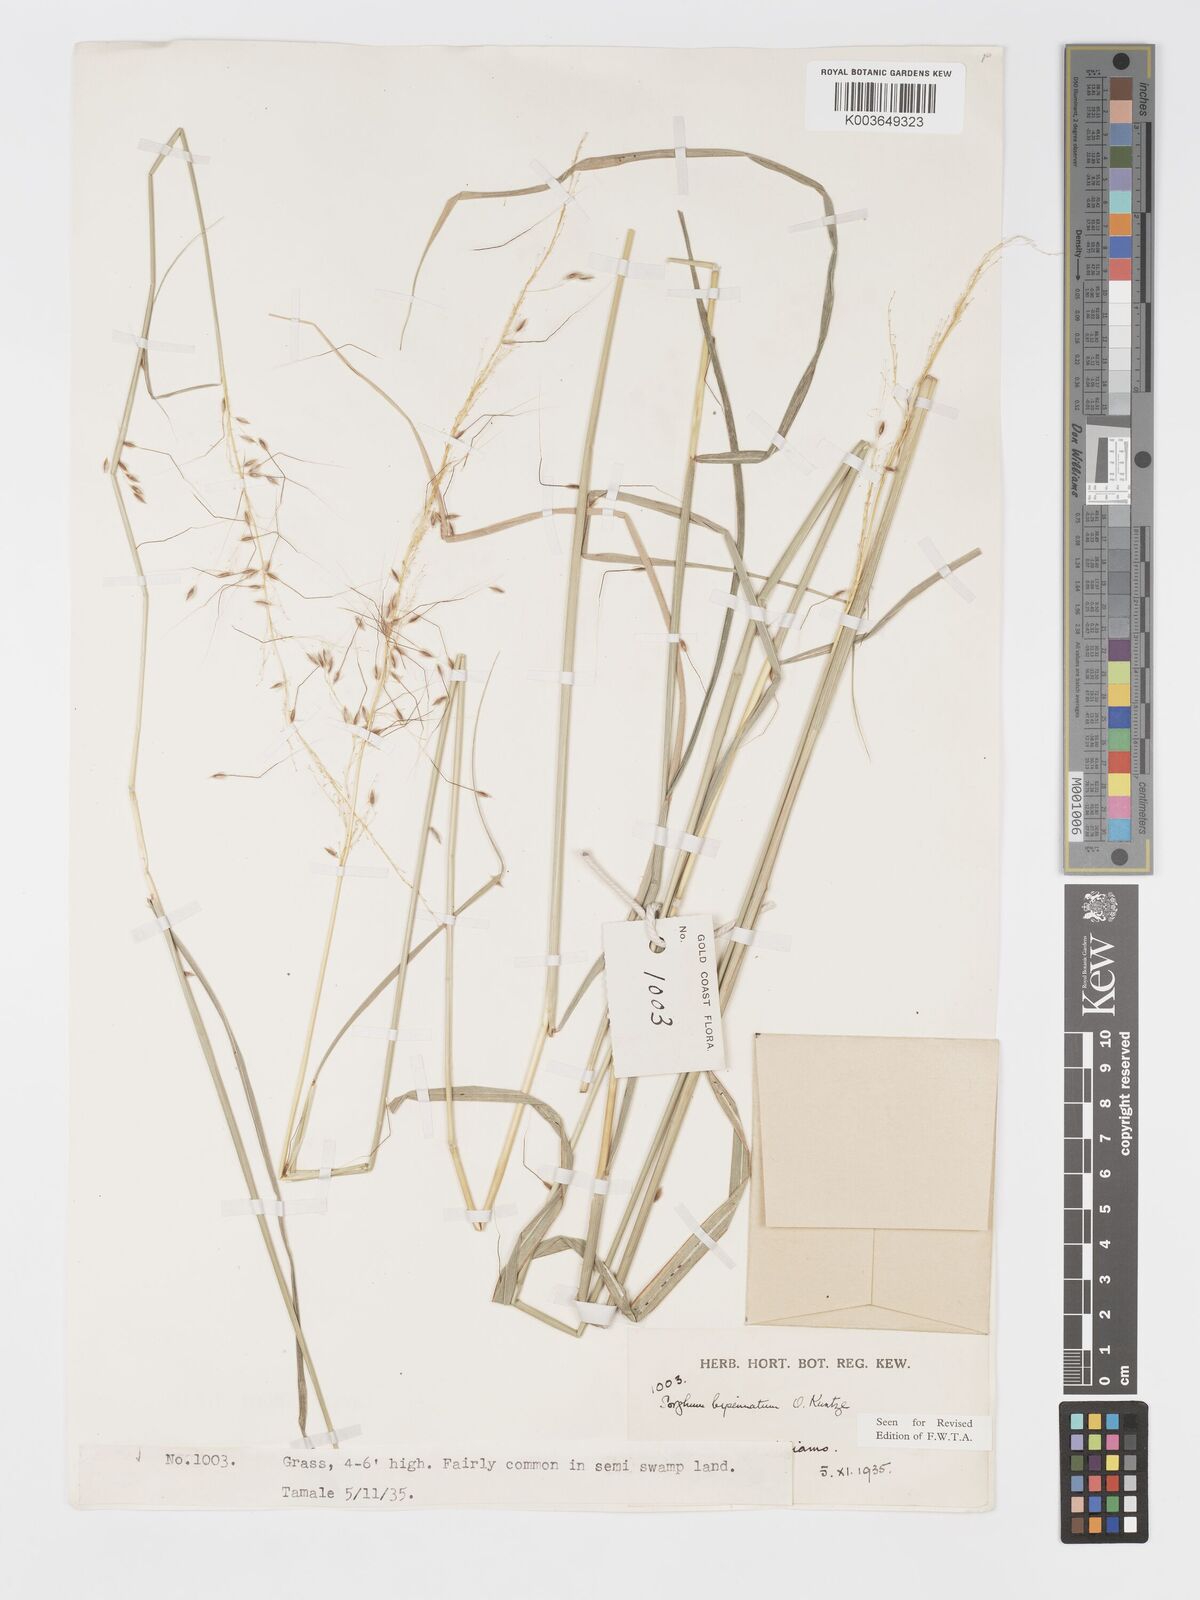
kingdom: Plantae
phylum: Tracheophyta
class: Liliopsida
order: Poales
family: Poaceae
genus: Sorghastrum
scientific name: Sorghastrum incompletum
